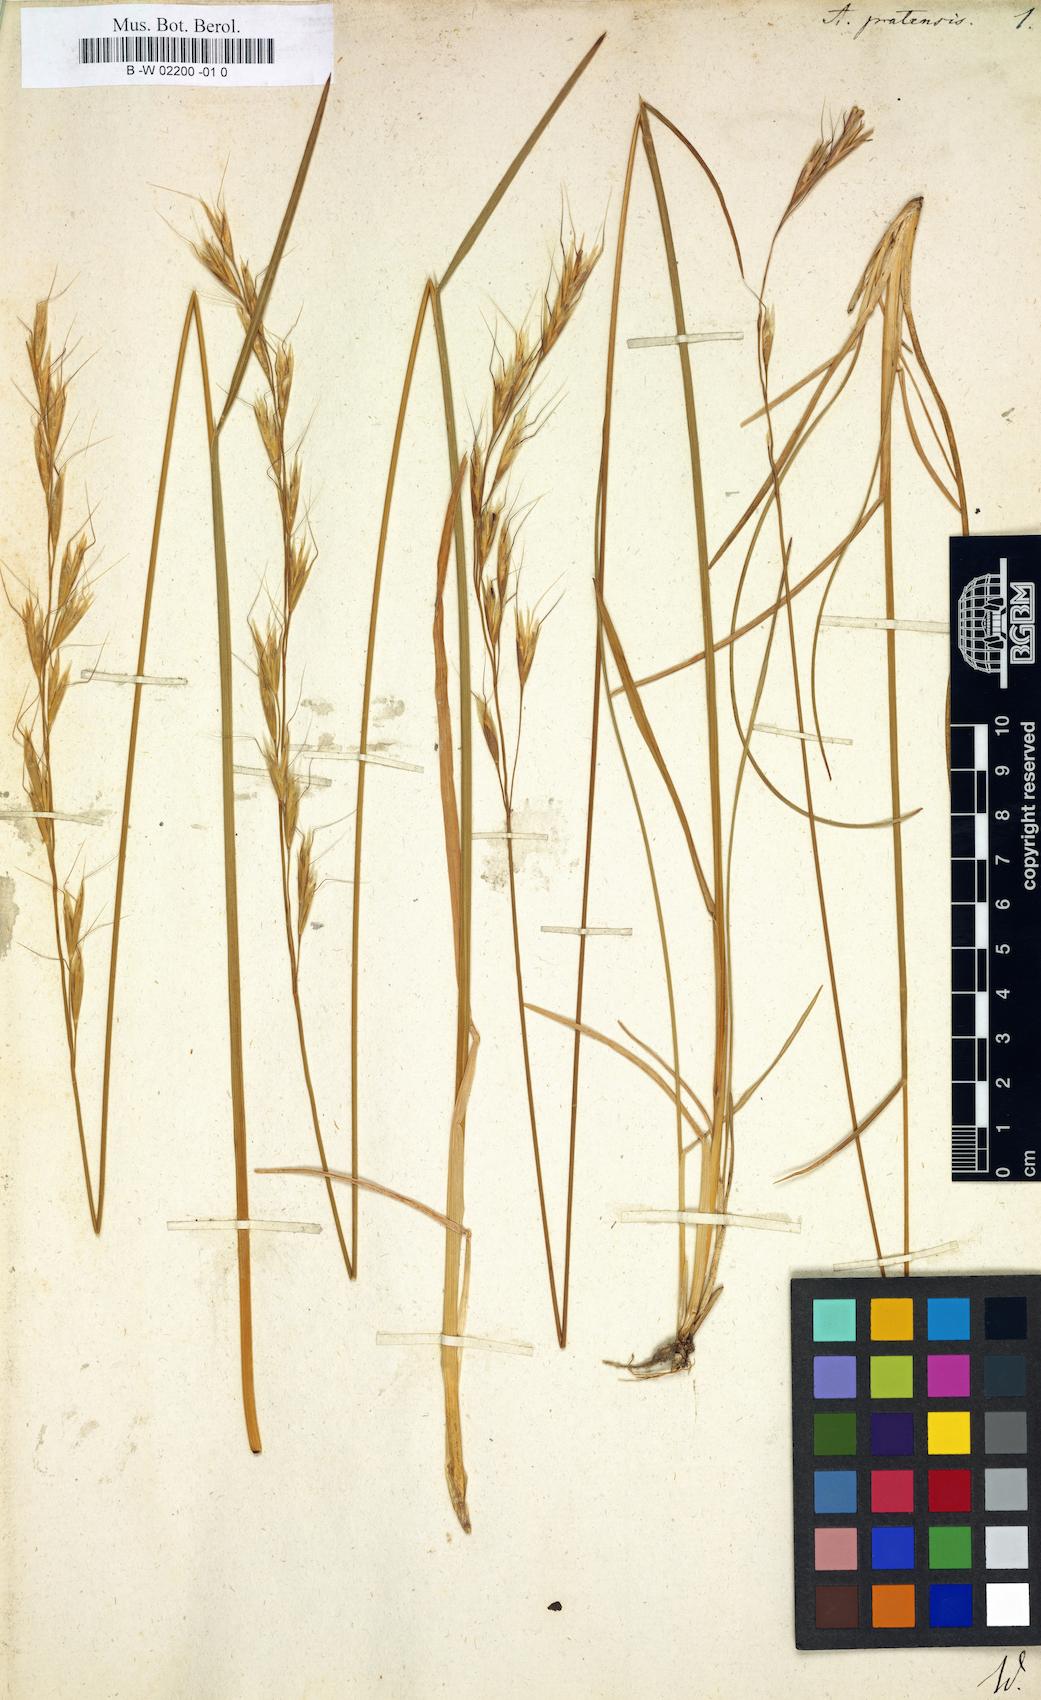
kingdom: Plantae
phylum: Tracheophyta
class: Liliopsida
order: Poales
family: Poaceae
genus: Helictochloa
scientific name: Helictochloa pratensis
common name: Meadow oat grass
